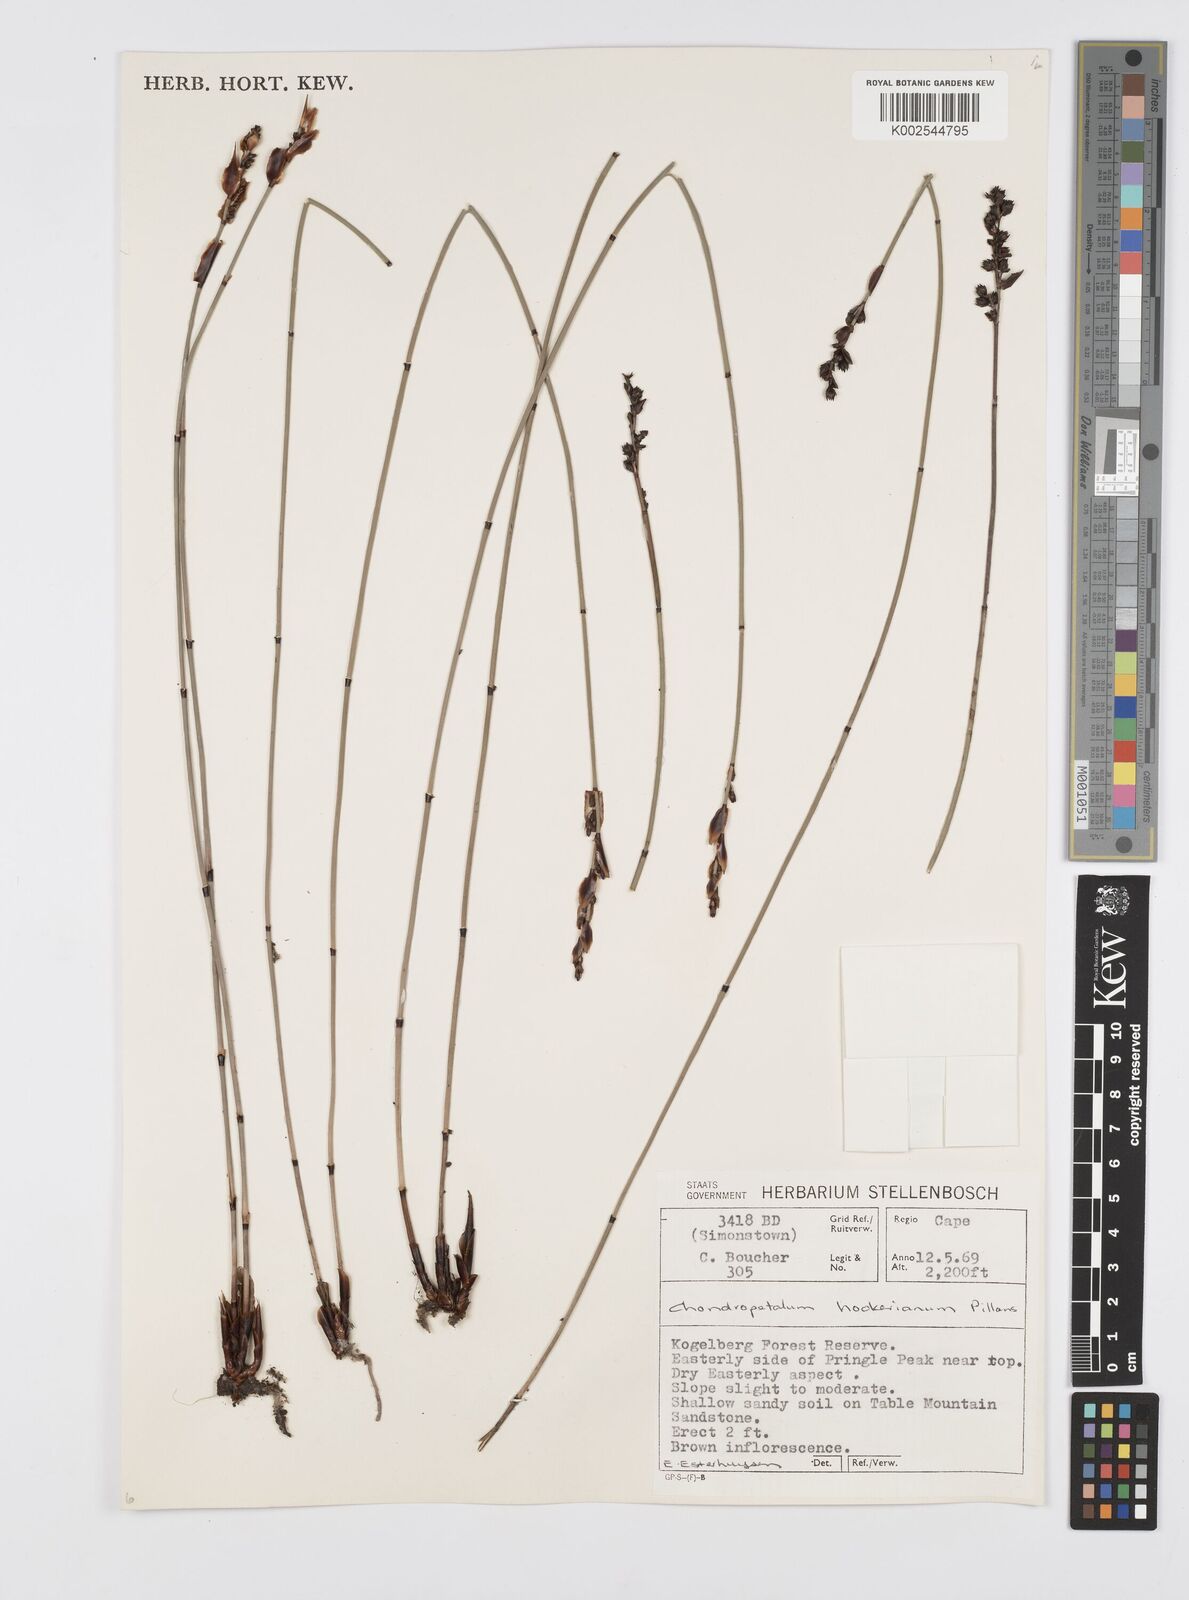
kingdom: Plantae
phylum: Tracheophyta
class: Liliopsida
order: Poales
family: Restionaceae
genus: Elegia
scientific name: Elegia hookeriana
